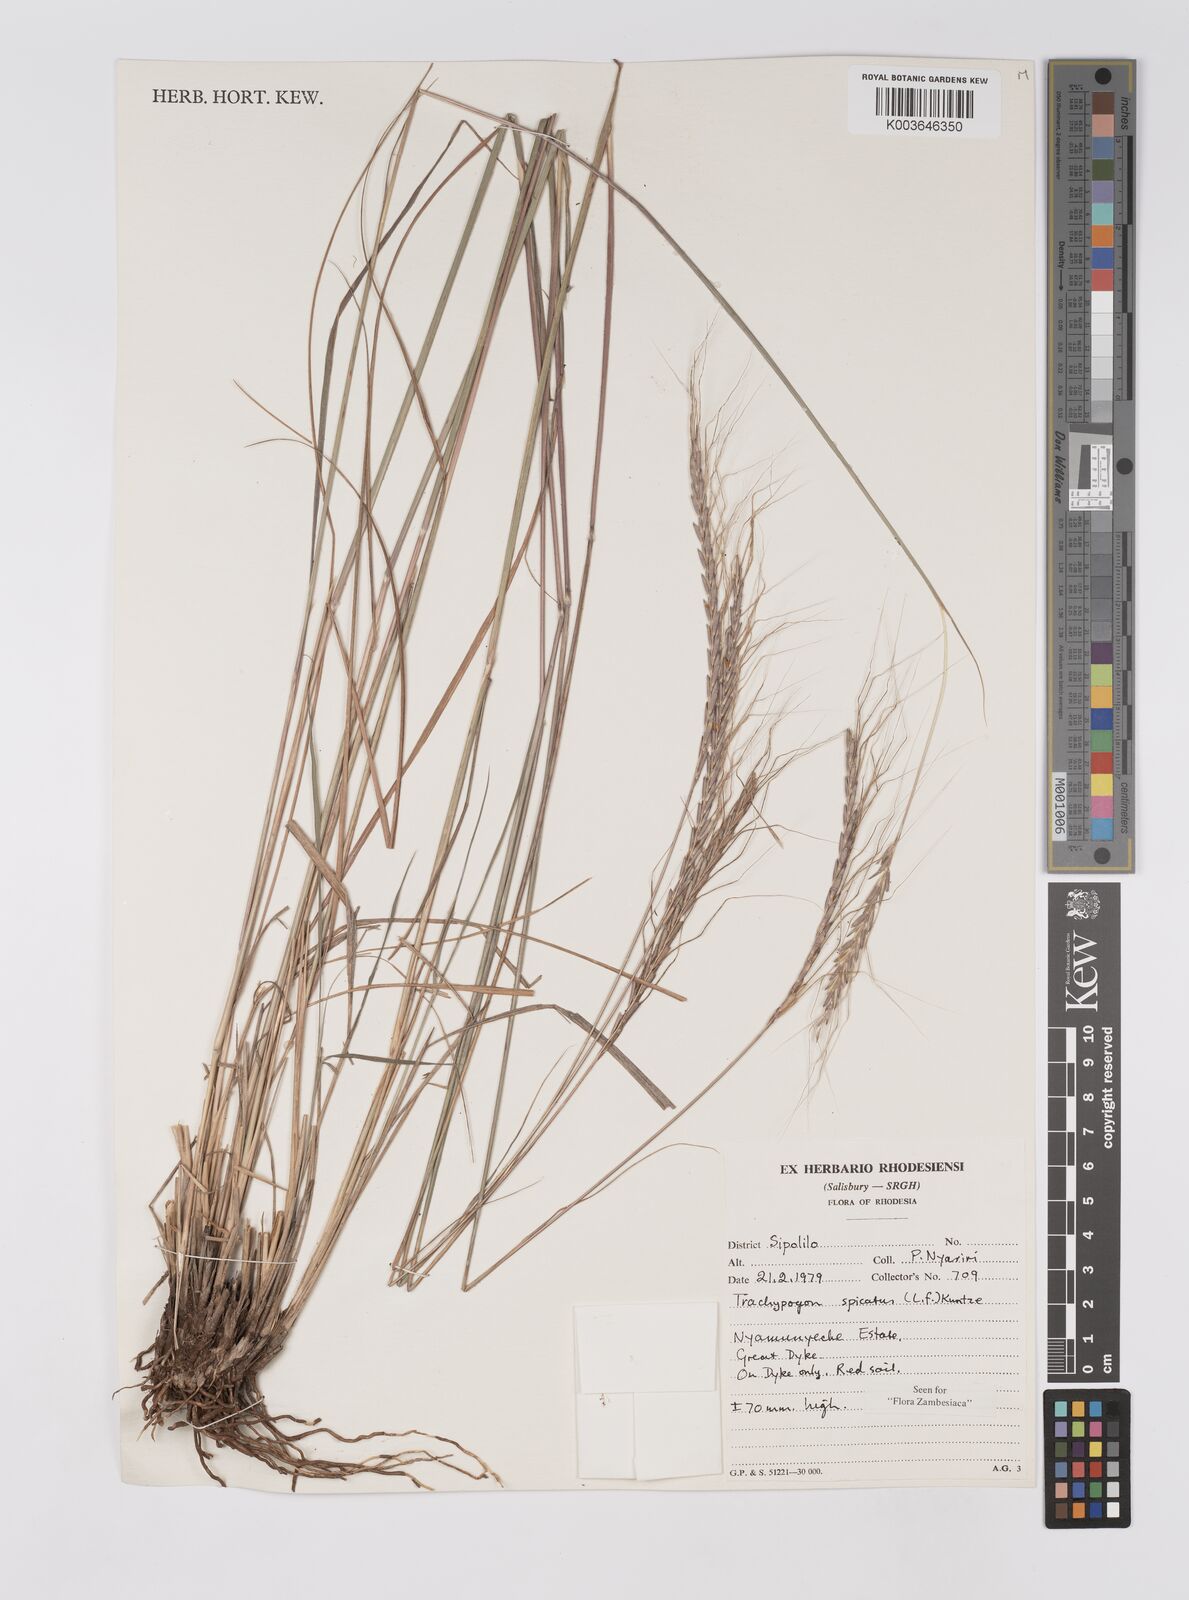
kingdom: Plantae
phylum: Tracheophyta
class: Liliopsida
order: Poales
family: Poaceae
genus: Trachypogon
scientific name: Trachypogon spicatus
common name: Crinkle-awn
